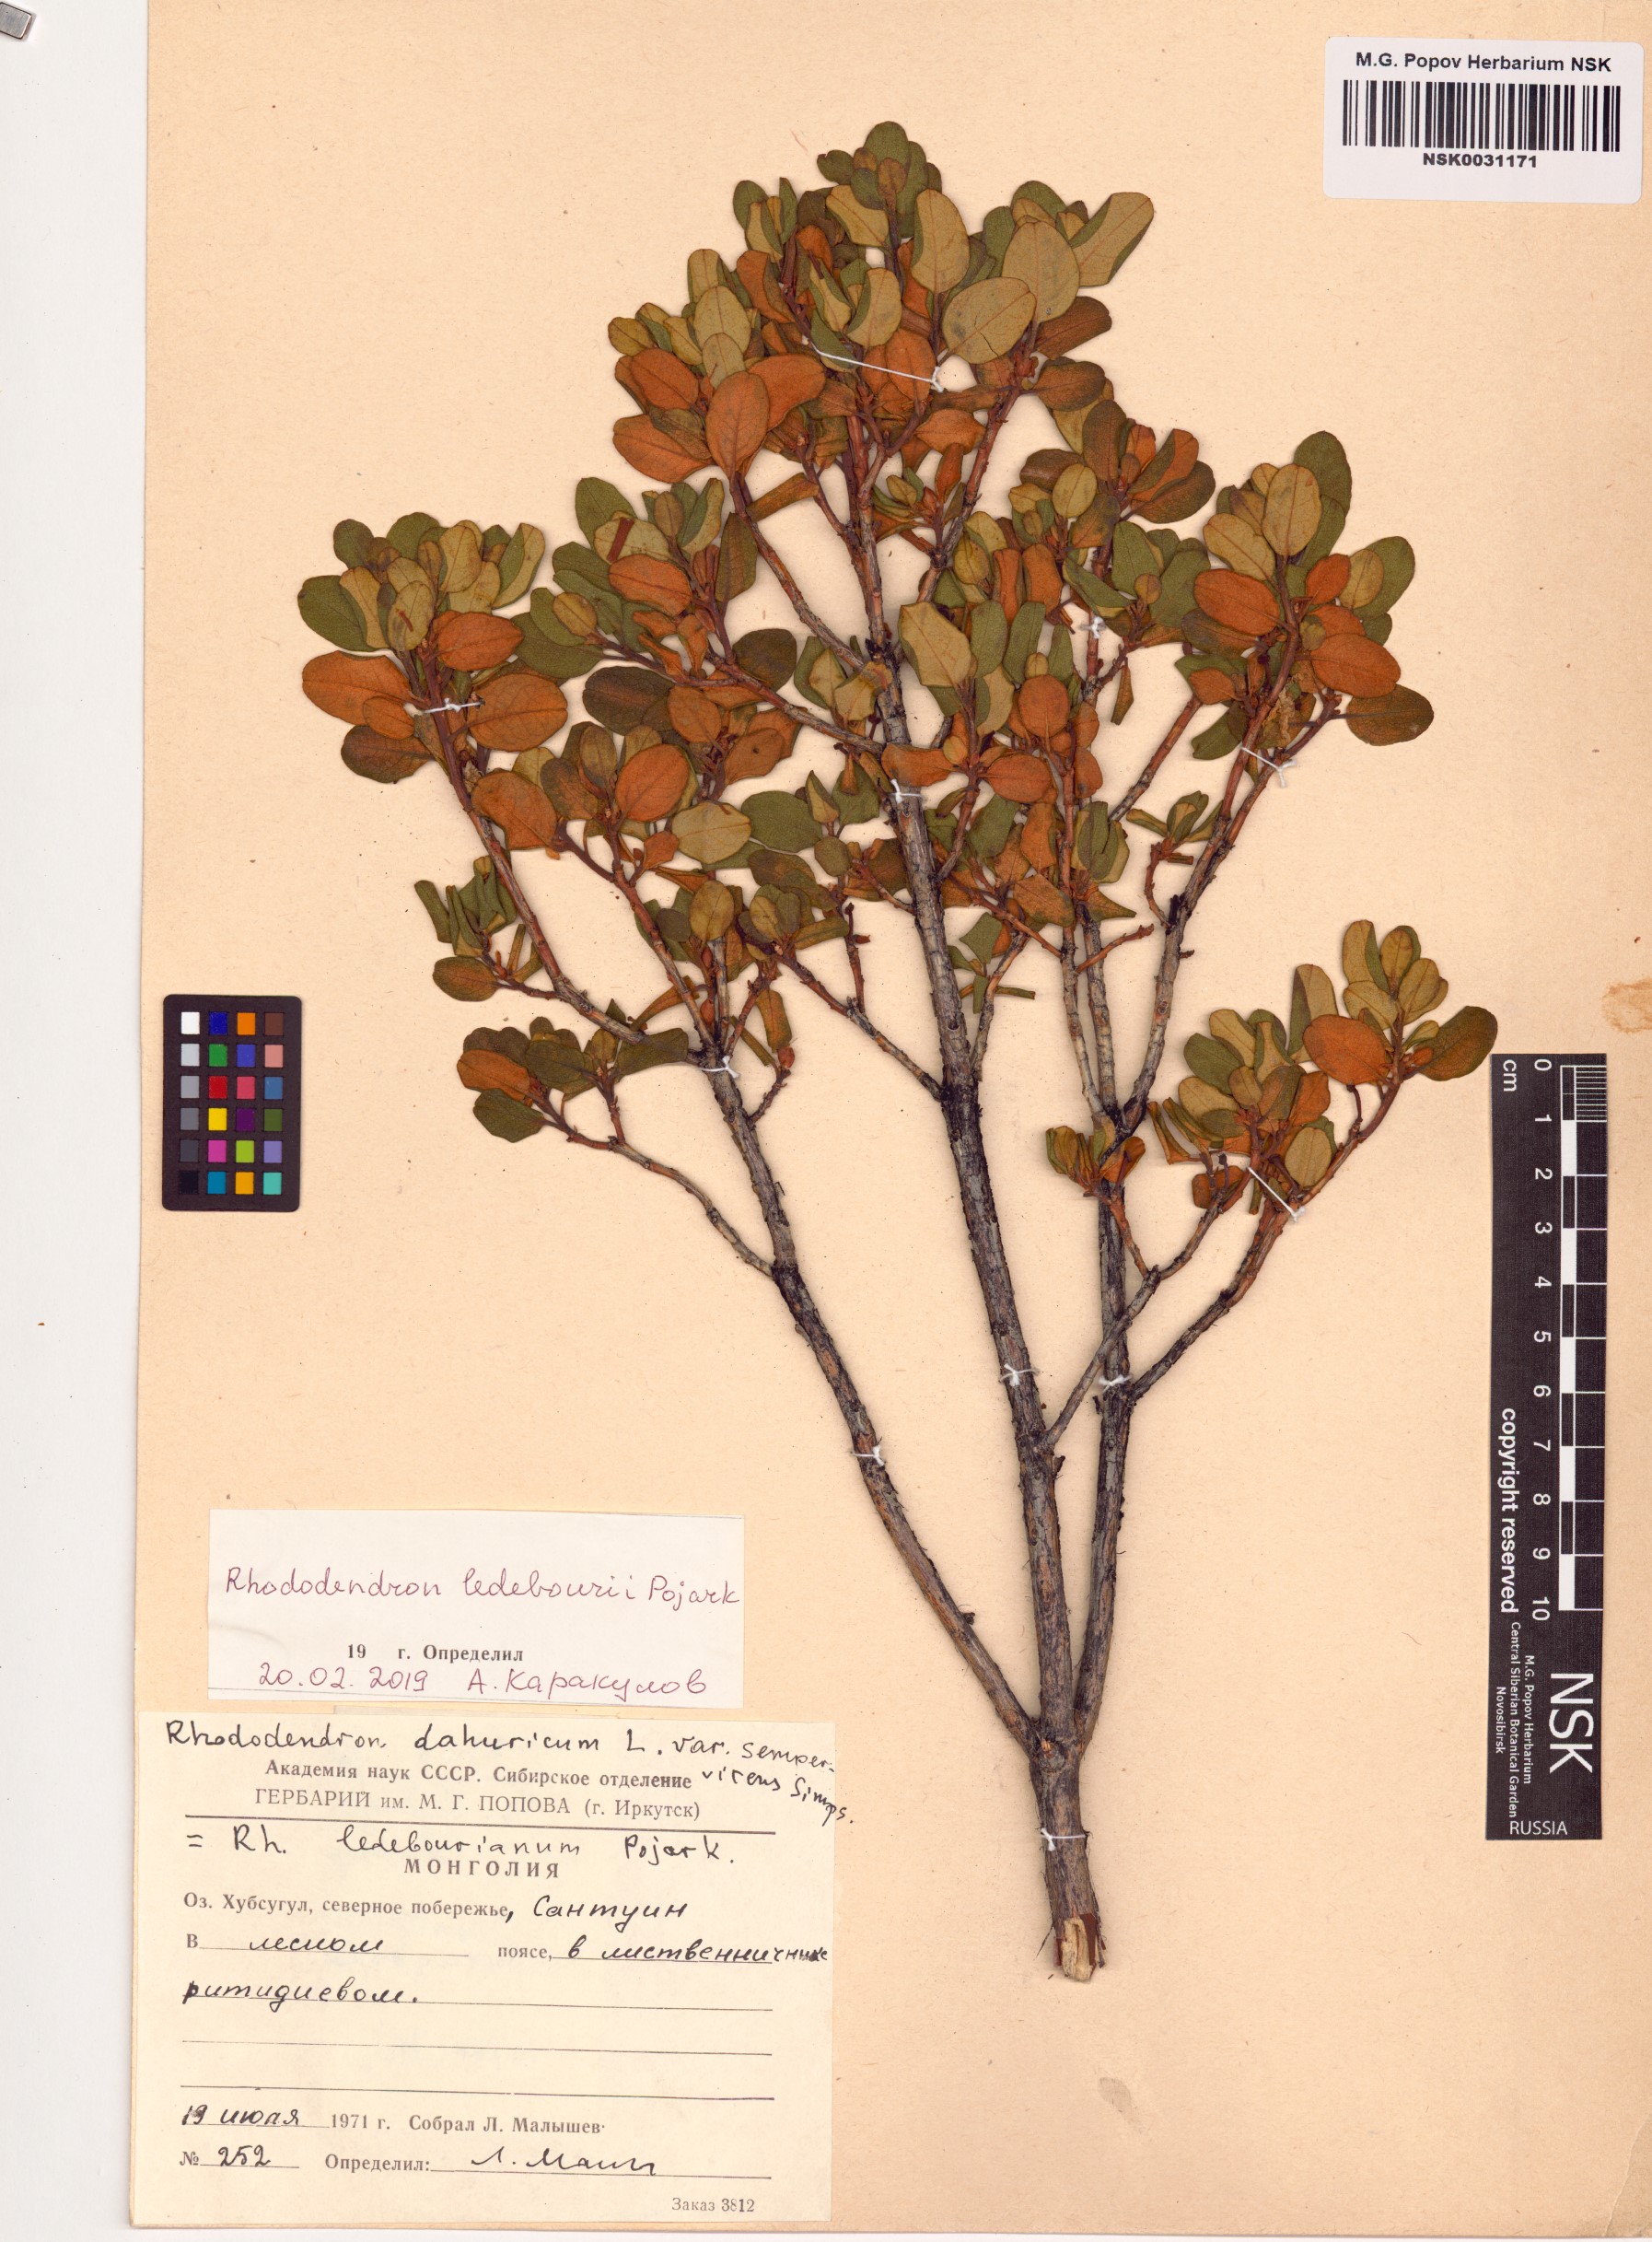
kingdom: Plantae
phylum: Tracheophyta
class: Magnoliopsida
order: Ericales
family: Ericaceae
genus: Rhododendron
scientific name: Rhododendron dauricum
